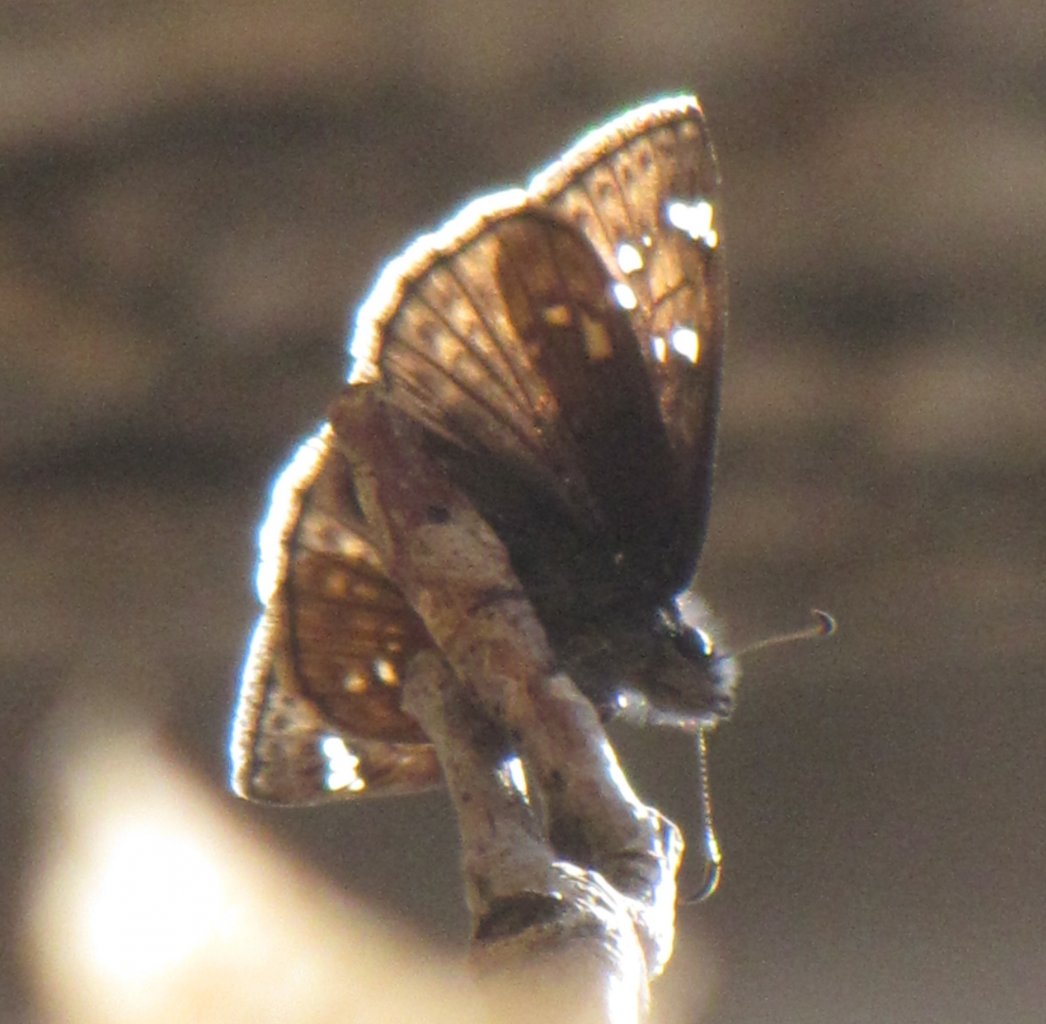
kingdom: Animalia
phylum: Arthropoda
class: Insecta
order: Lepidoptera
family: Hesperiidae
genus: Gesta
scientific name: Gesta
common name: Juvenal's Duskywing
